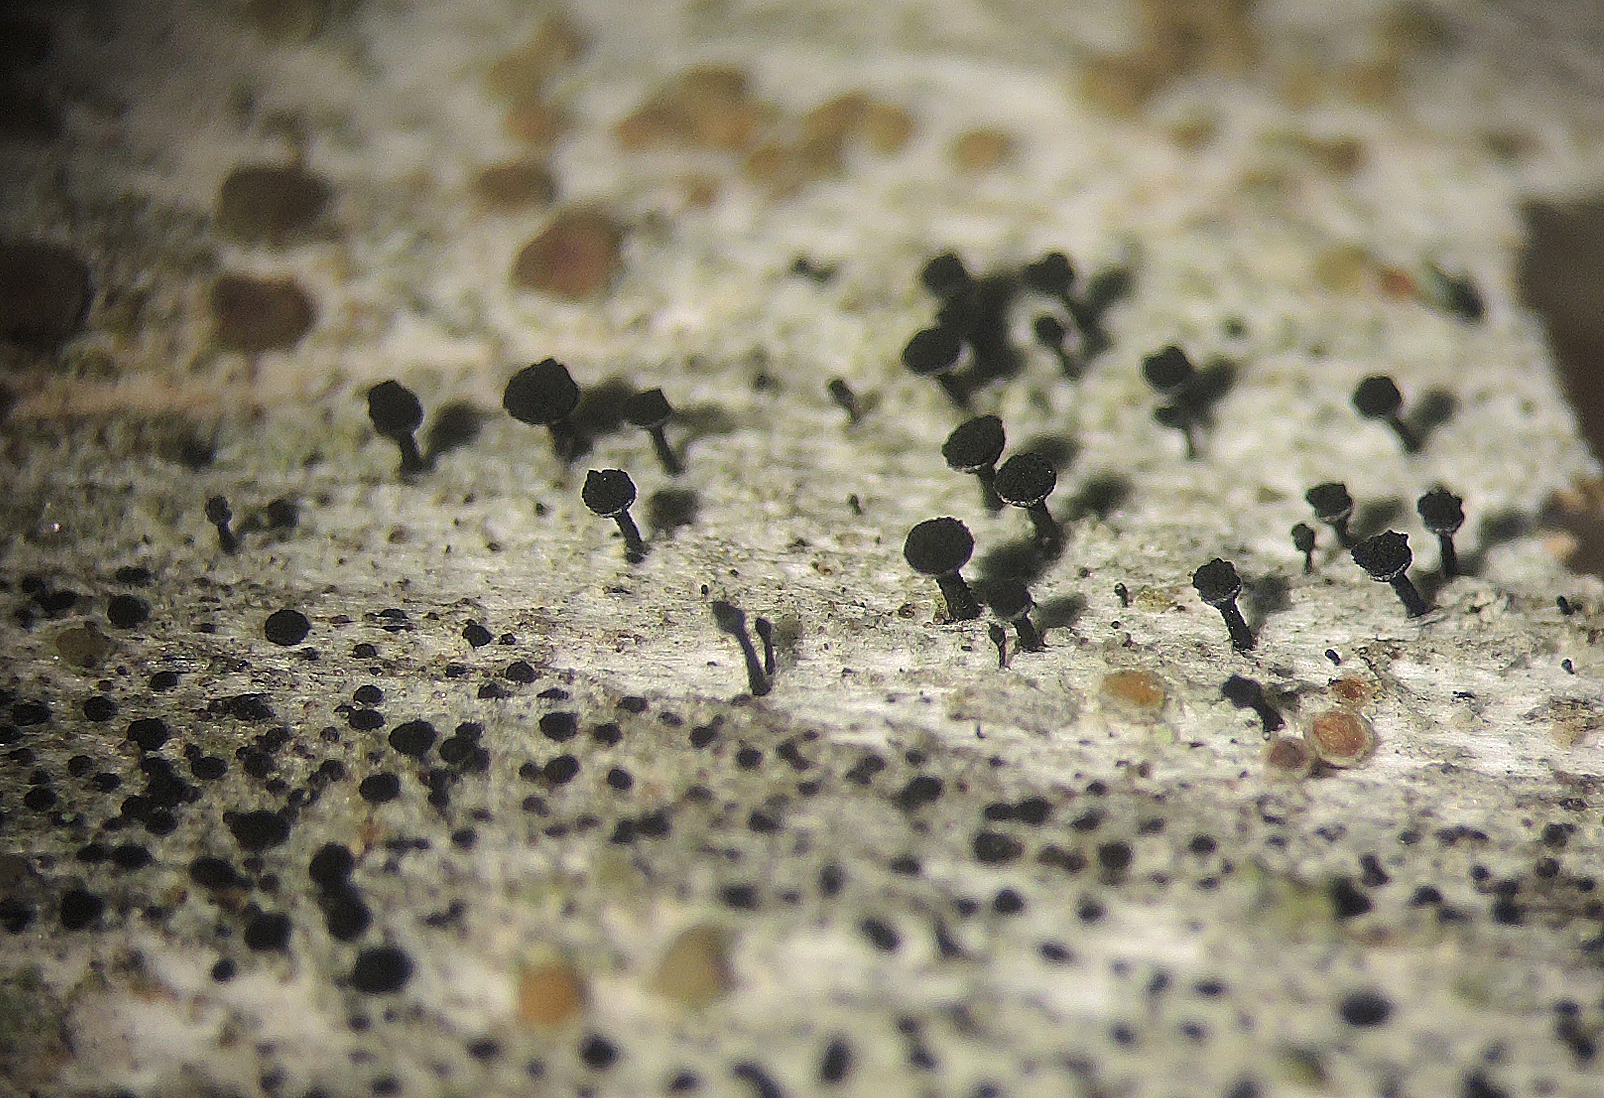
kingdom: Fungi
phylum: Ascomycota
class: Lecanoromycetes
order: Caliciales
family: Caliciaceae
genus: Calicium
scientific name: Calicium glaucellum
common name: grågrøn nålelav
